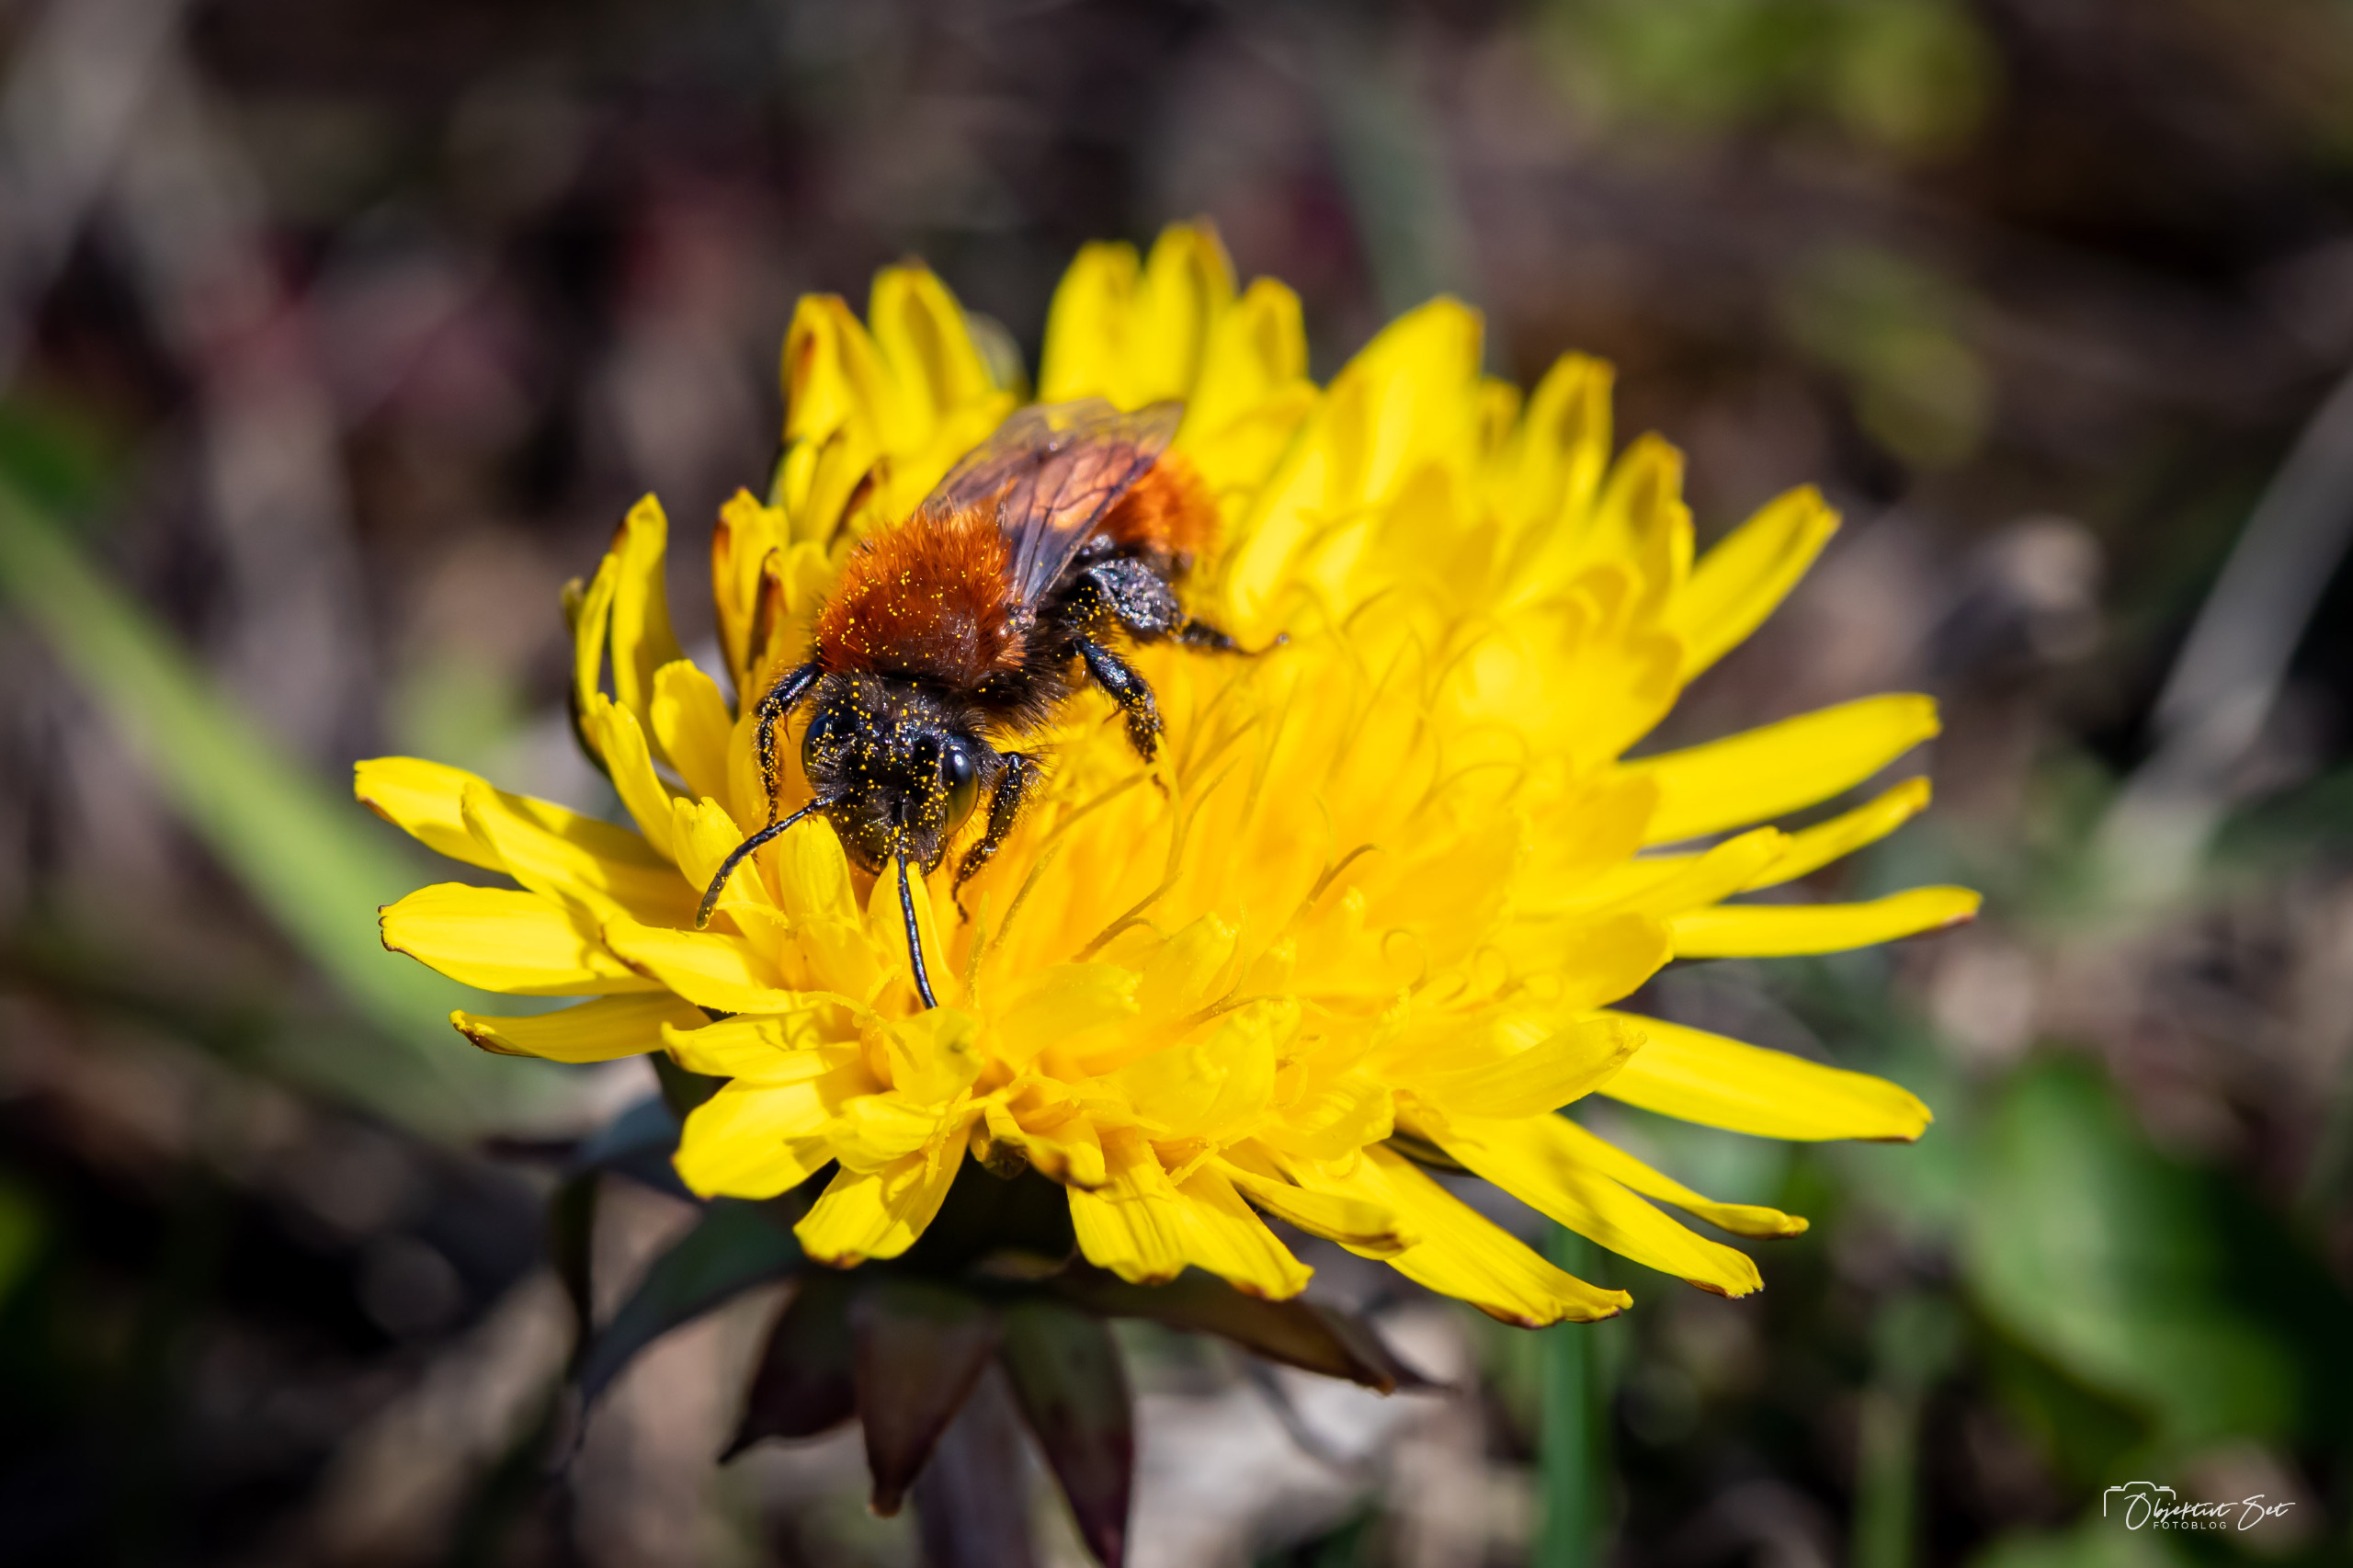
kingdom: Animalia
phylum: Arthropoda
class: Insecta
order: Hymenoptera
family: Andrenidae
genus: Andrena
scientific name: Andrena fulva
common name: Rødpelset jordbi
